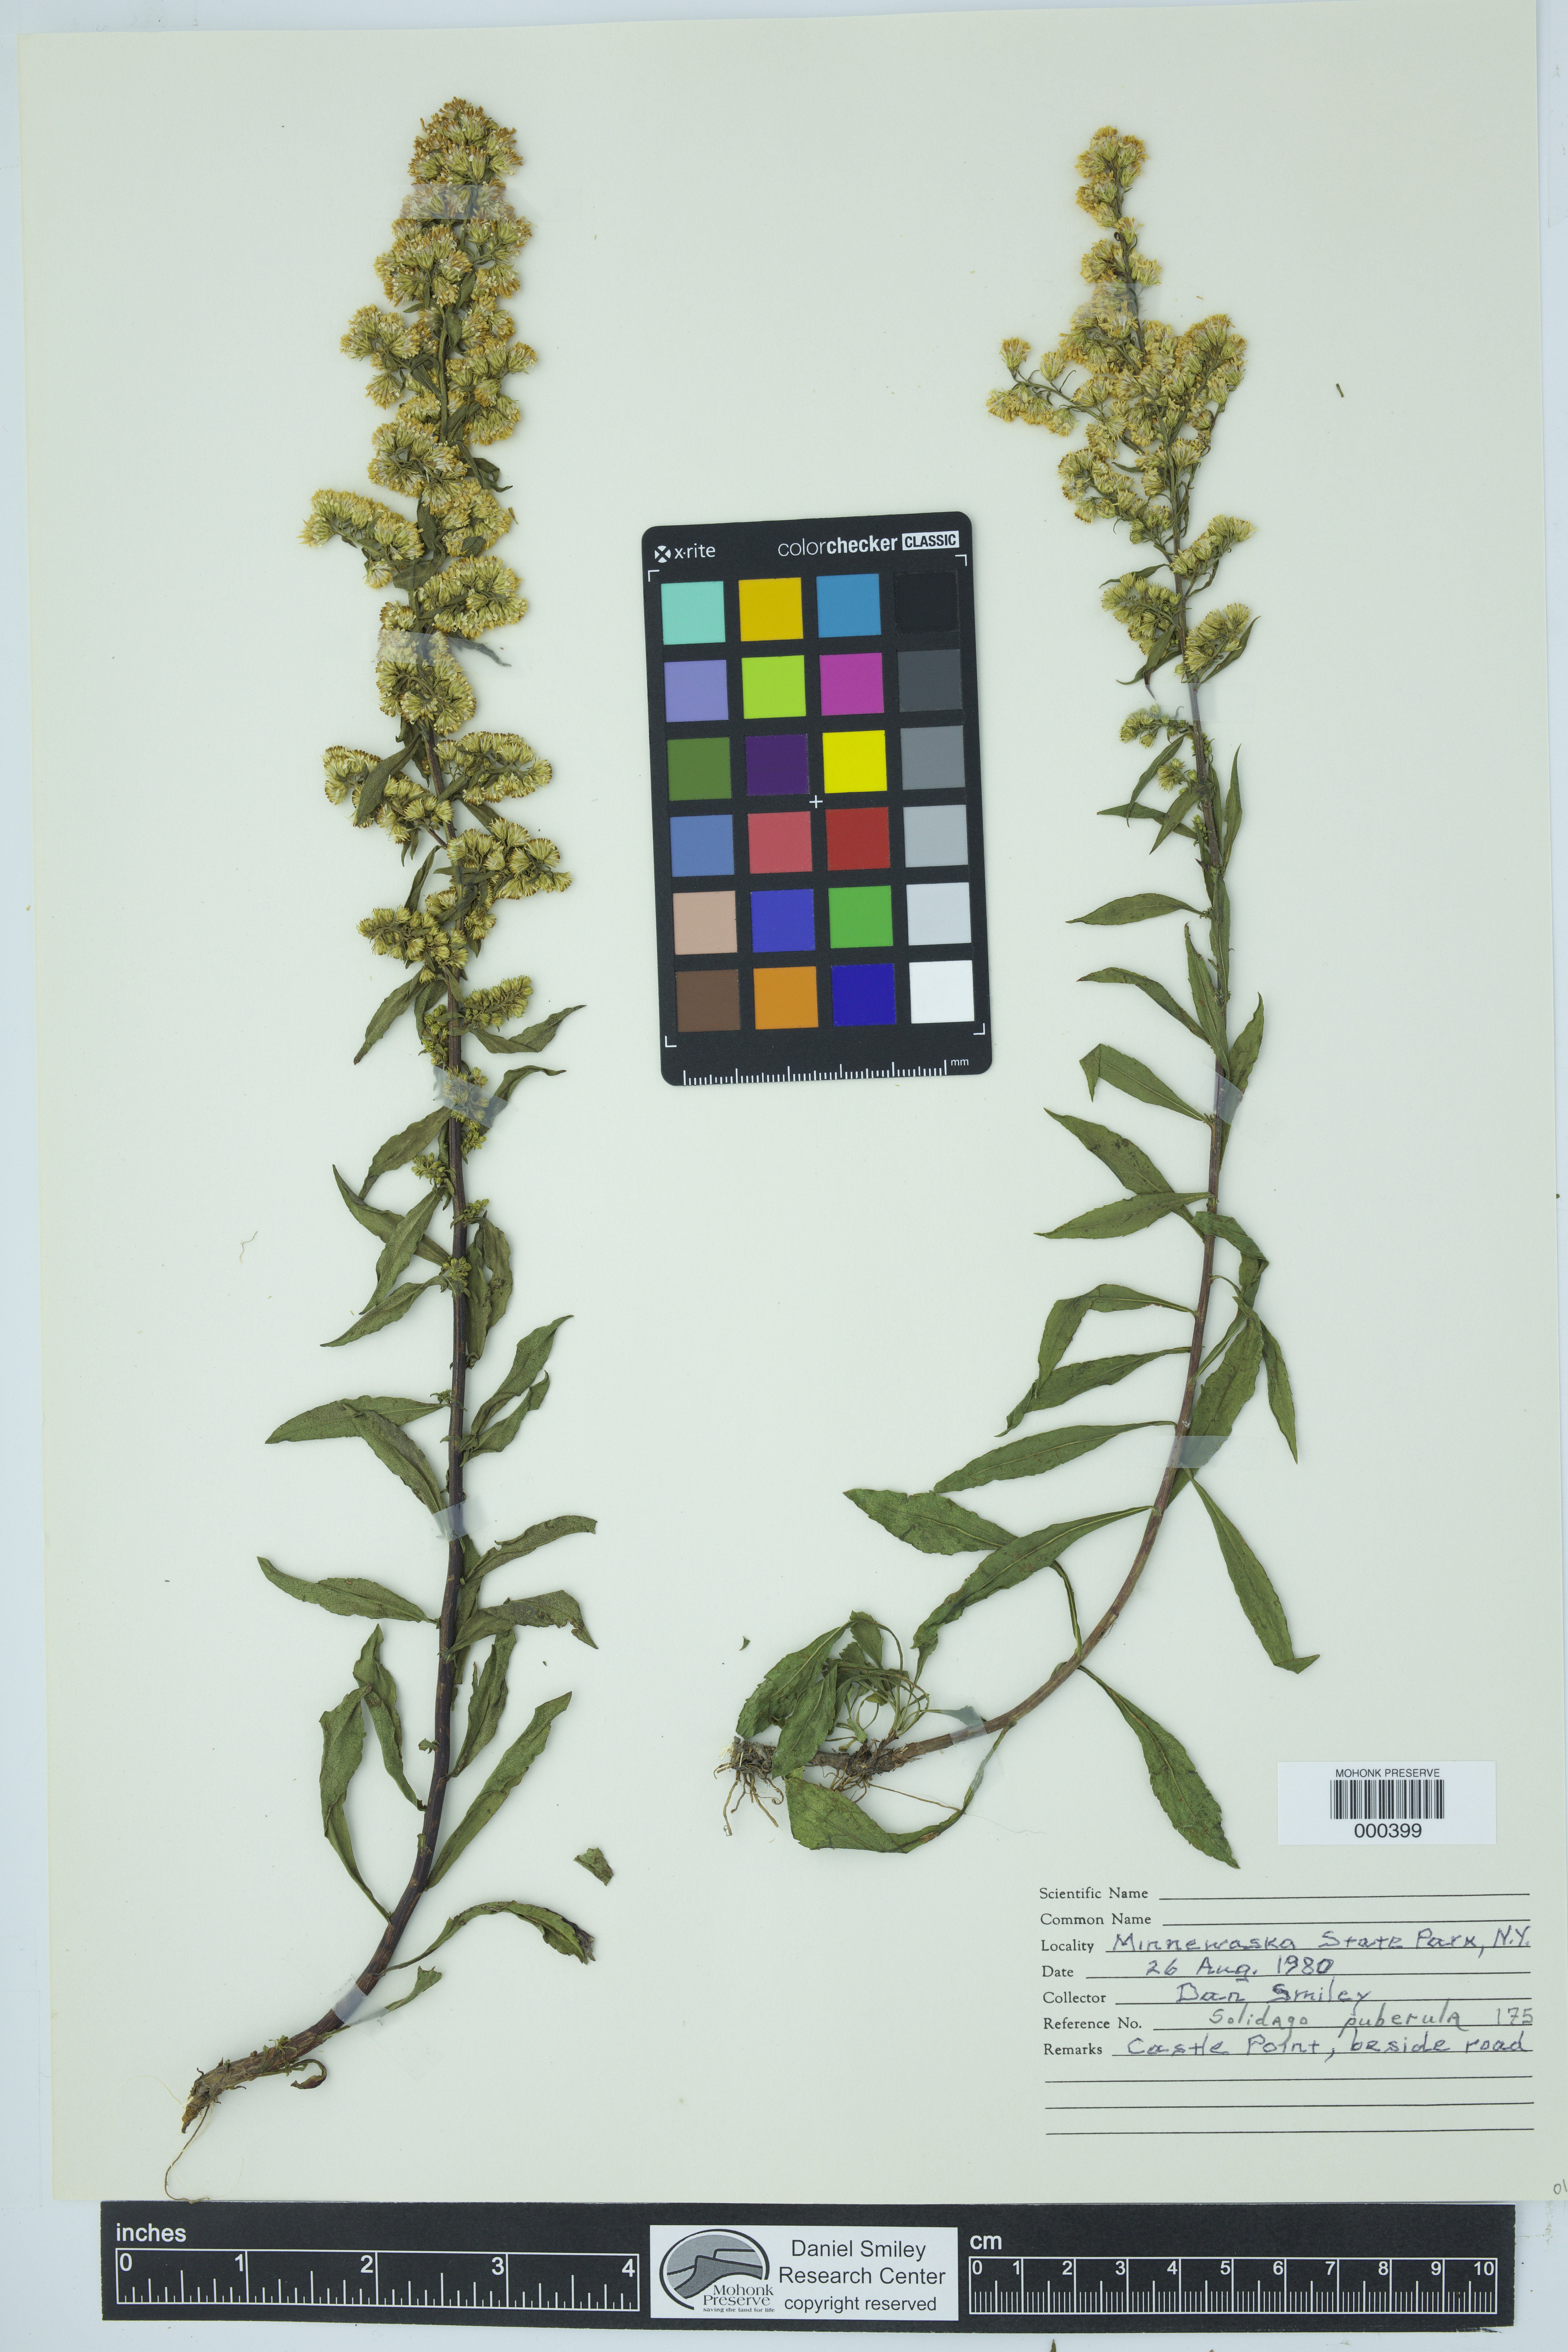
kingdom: Plantae
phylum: Tracheophyta
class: Magnoliopsida
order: Asterales
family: Asteraceae
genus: Solidago
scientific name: Solidago puberula
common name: Downy goldenrod
